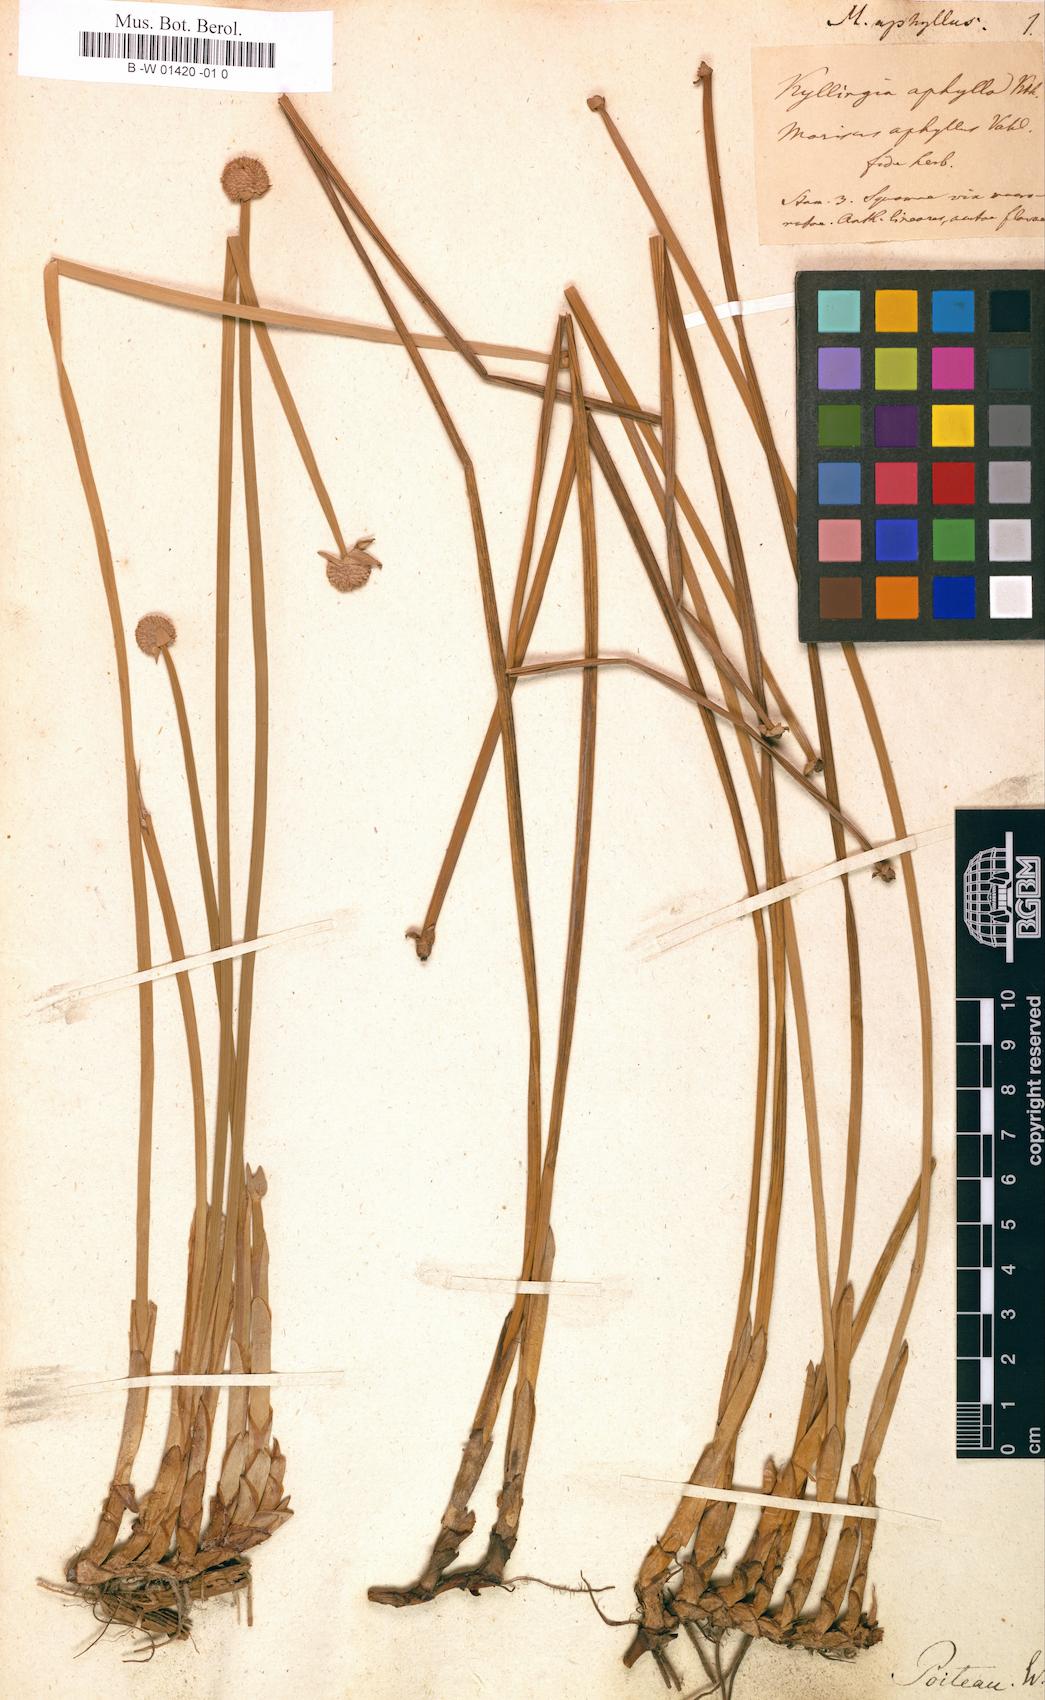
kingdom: Plantae
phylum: Tracheophyta
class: Liliopsida
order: Poales
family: Cyperaceae
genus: Cyperus
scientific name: Cyperus tibialis
